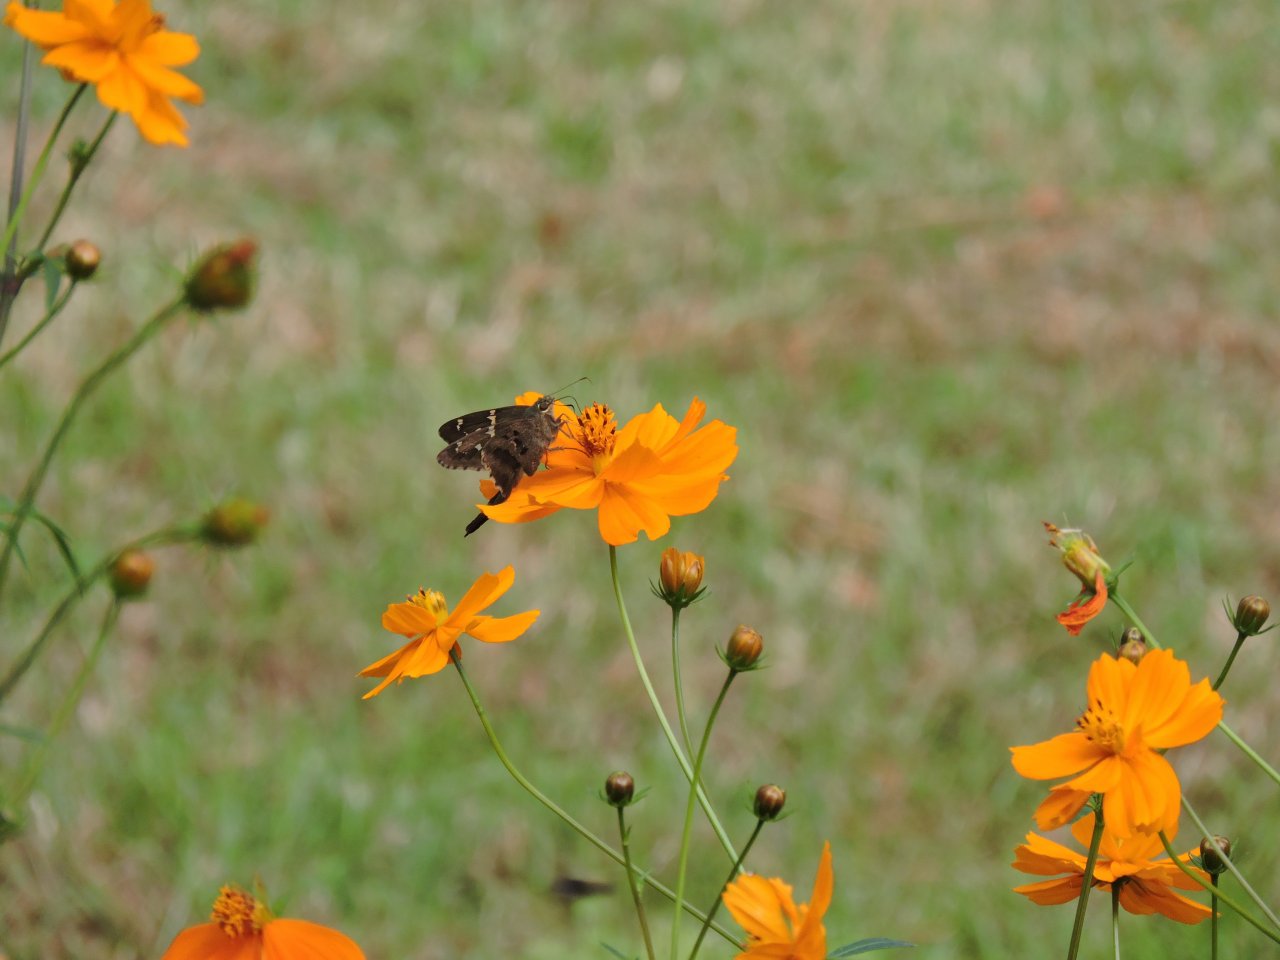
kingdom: Animalia
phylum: Arthropoda
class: Insecta
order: Lepidoptera
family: Hesperiidae
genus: Urbanus
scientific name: Urbanus proteus
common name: Long-tailed Skipper
